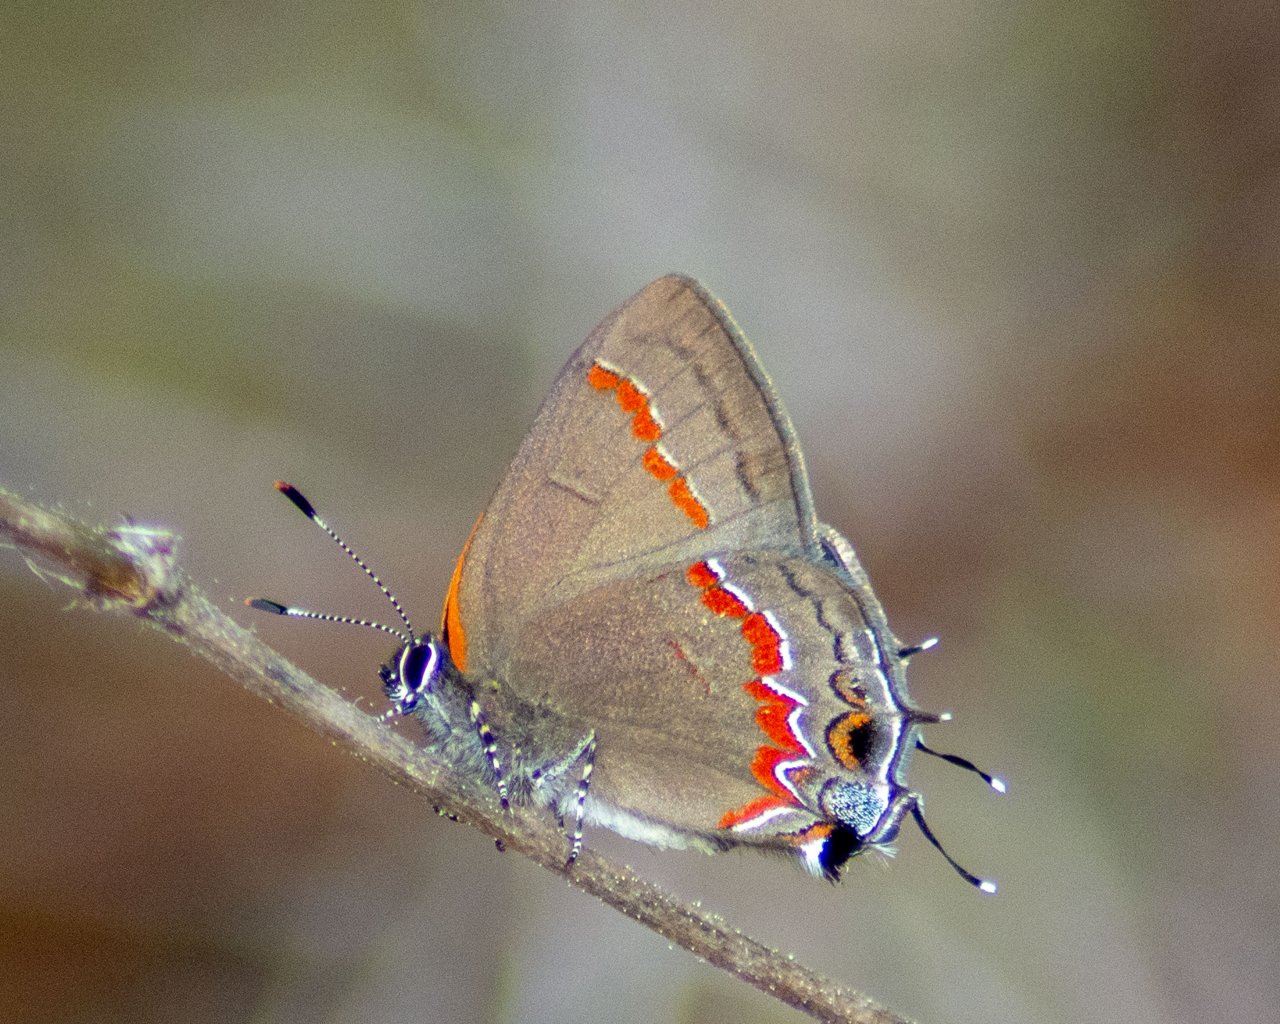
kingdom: Animalia
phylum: Arthropoda
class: Insecta
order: Lepidoptera
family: Lycaenidae
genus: Calycopis
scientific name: Calycopis cecrops
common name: Red-banded Hairstreak
